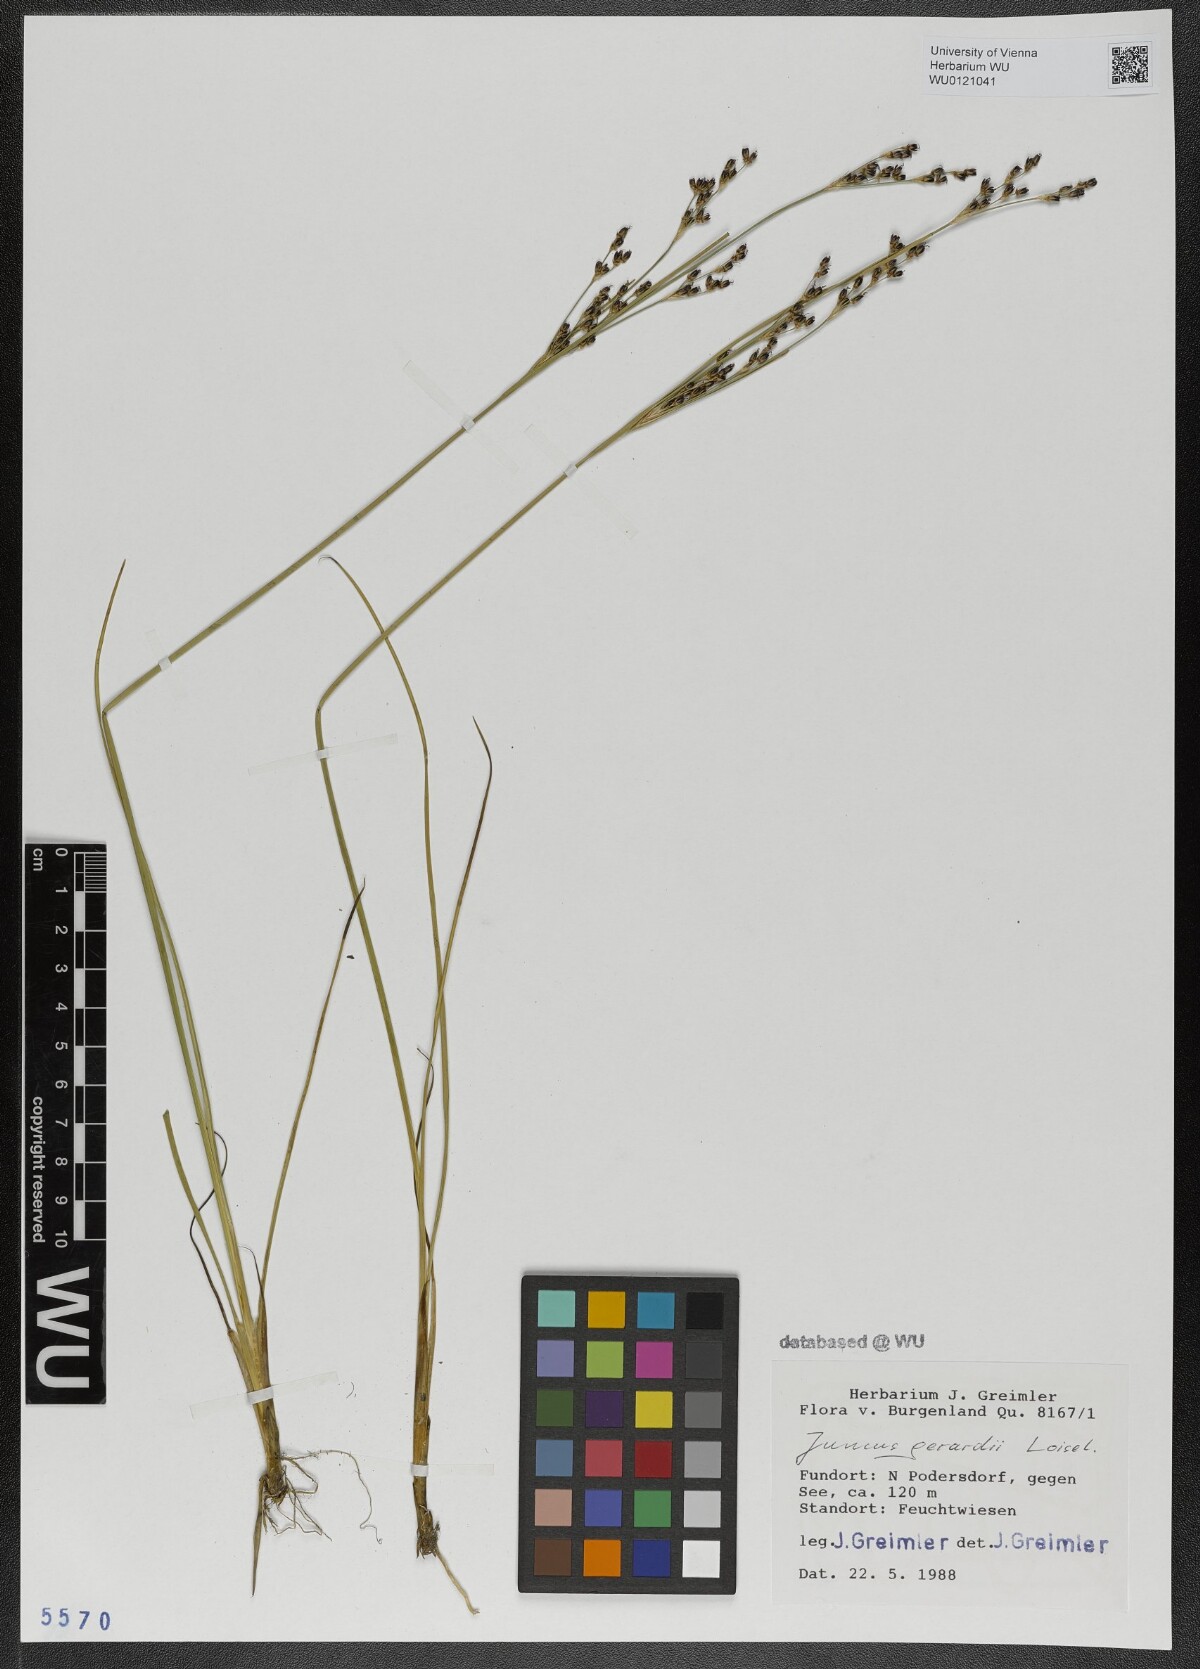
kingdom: Plantae
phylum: Tracheophyta
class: Liliopsida
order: Poales
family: Juncaceae
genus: Juncus
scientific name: Juncus gerardi
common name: Saltmarsh rush
